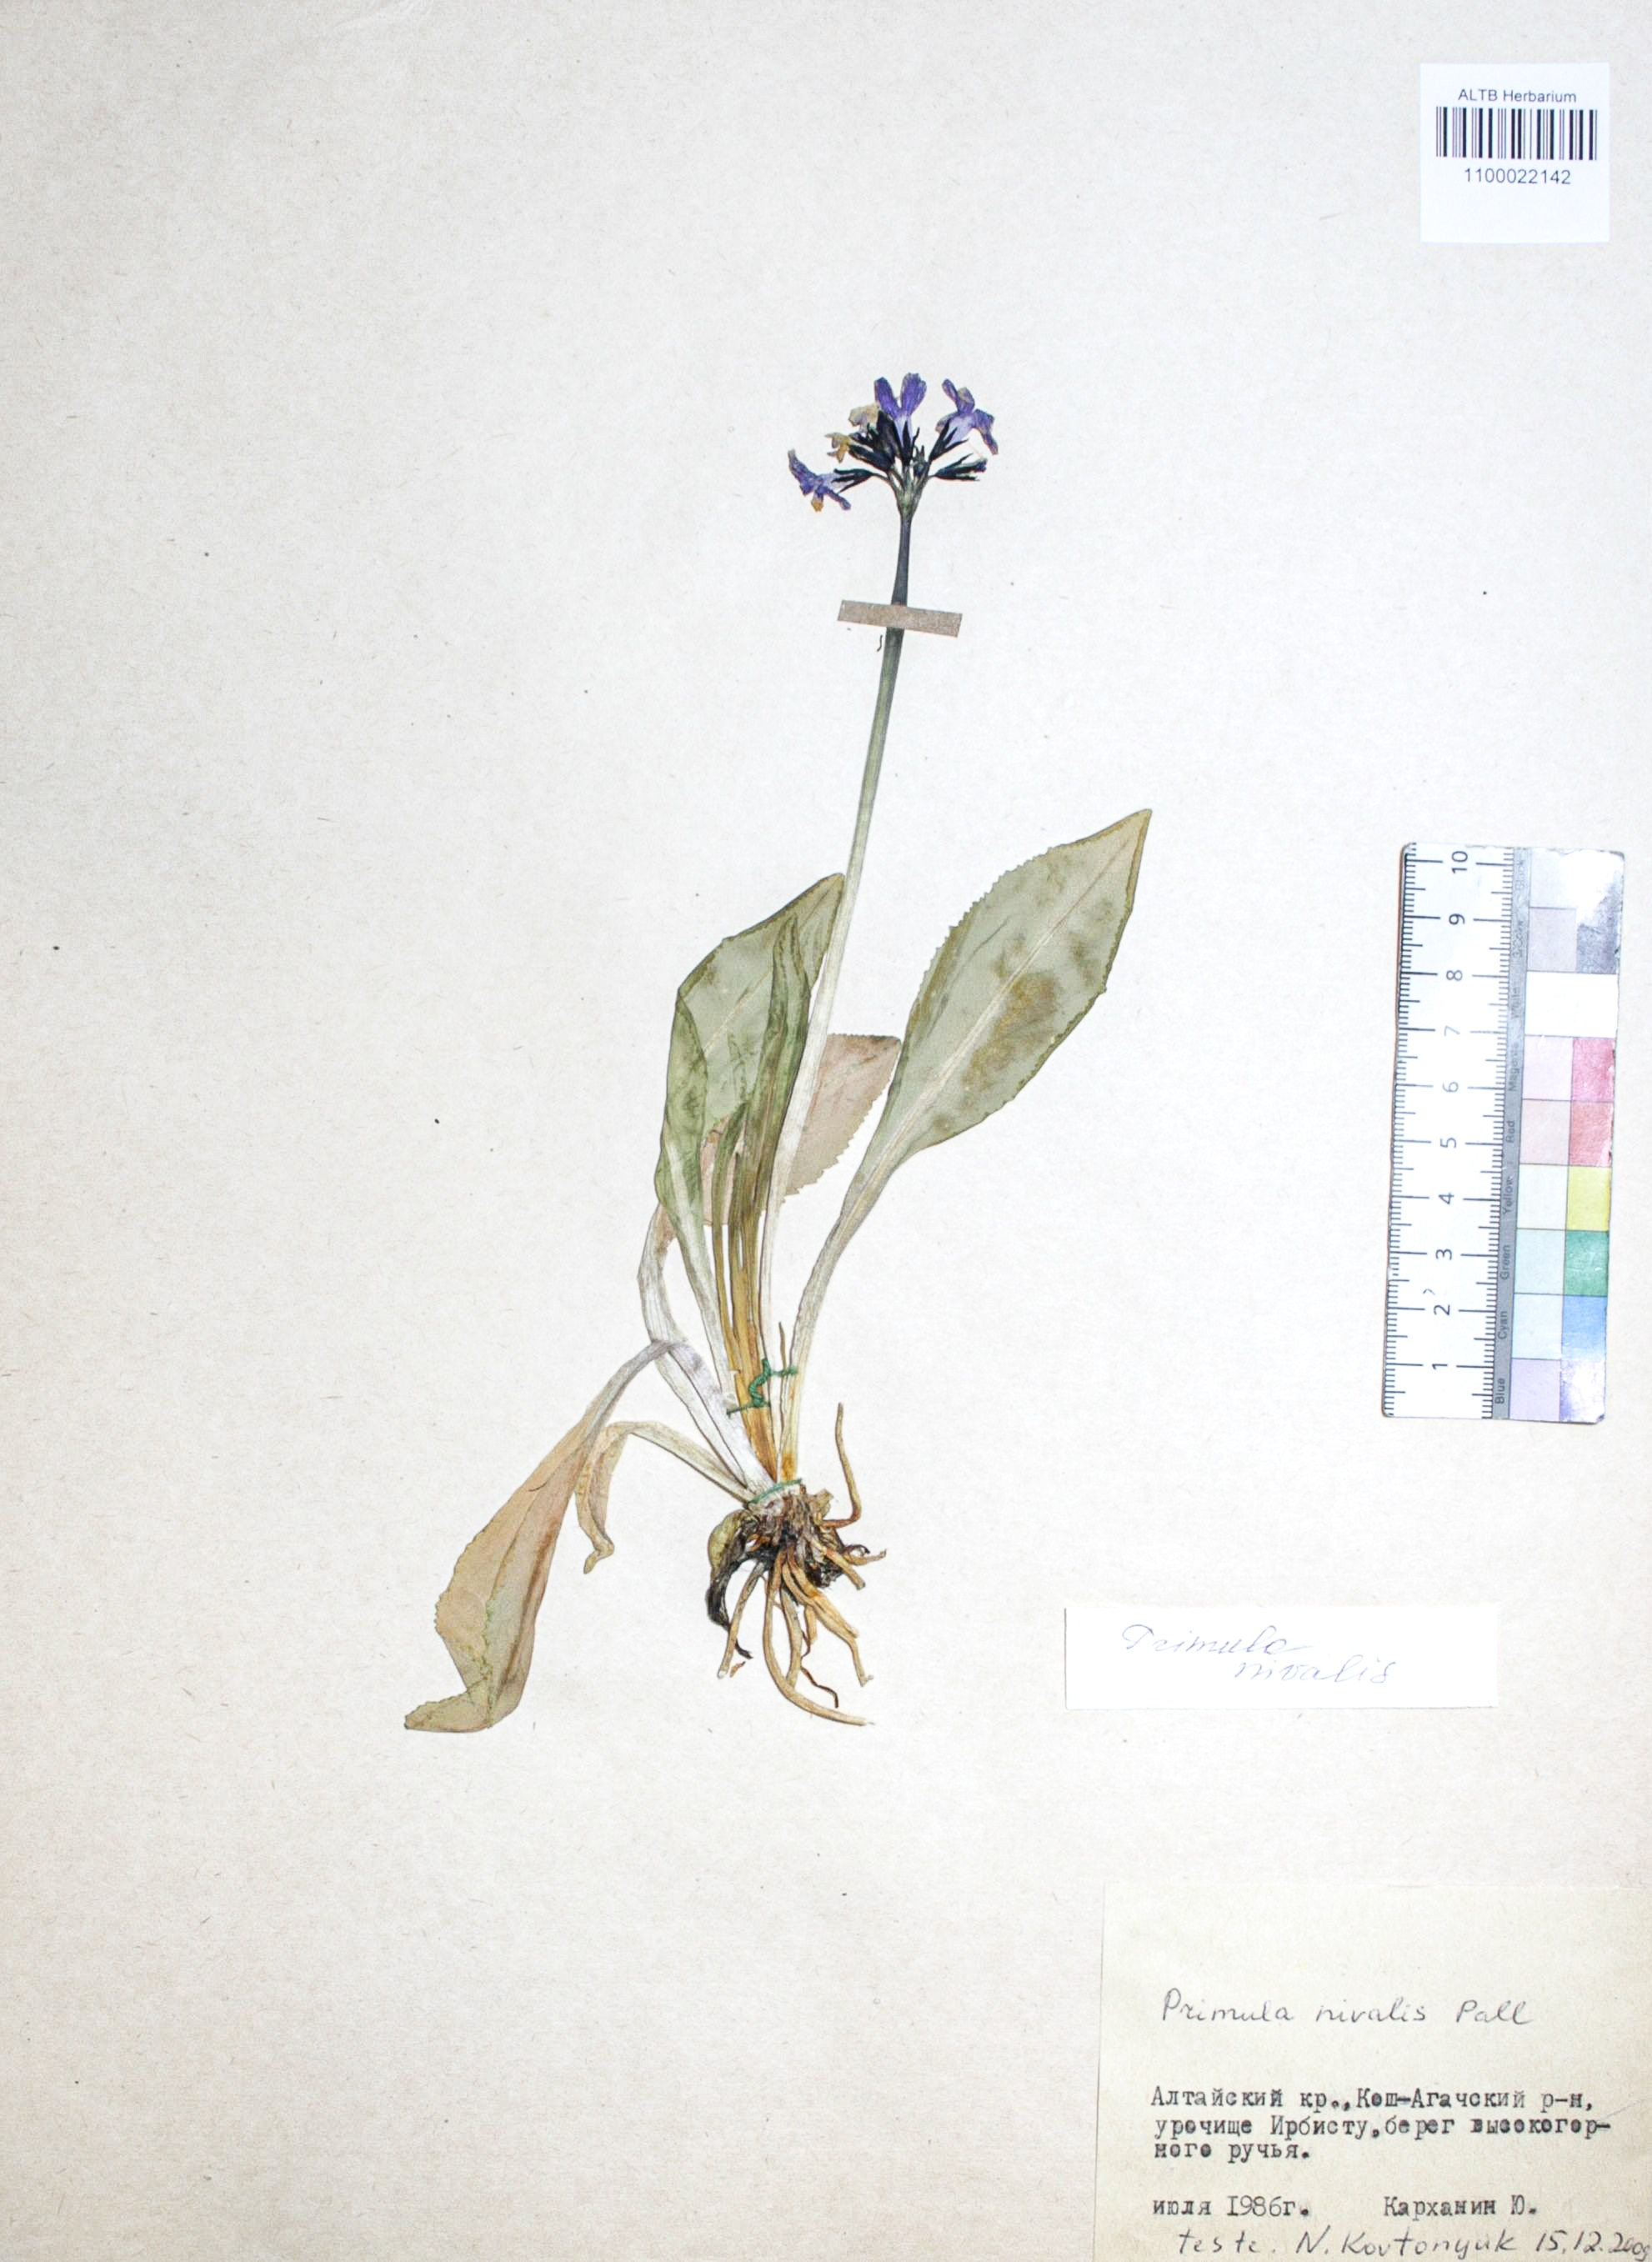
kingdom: Plantae
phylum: Tracheophyta
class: Magnoliopsida
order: Ericales
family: Primulaceae
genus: Primula
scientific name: Primula nivalis
